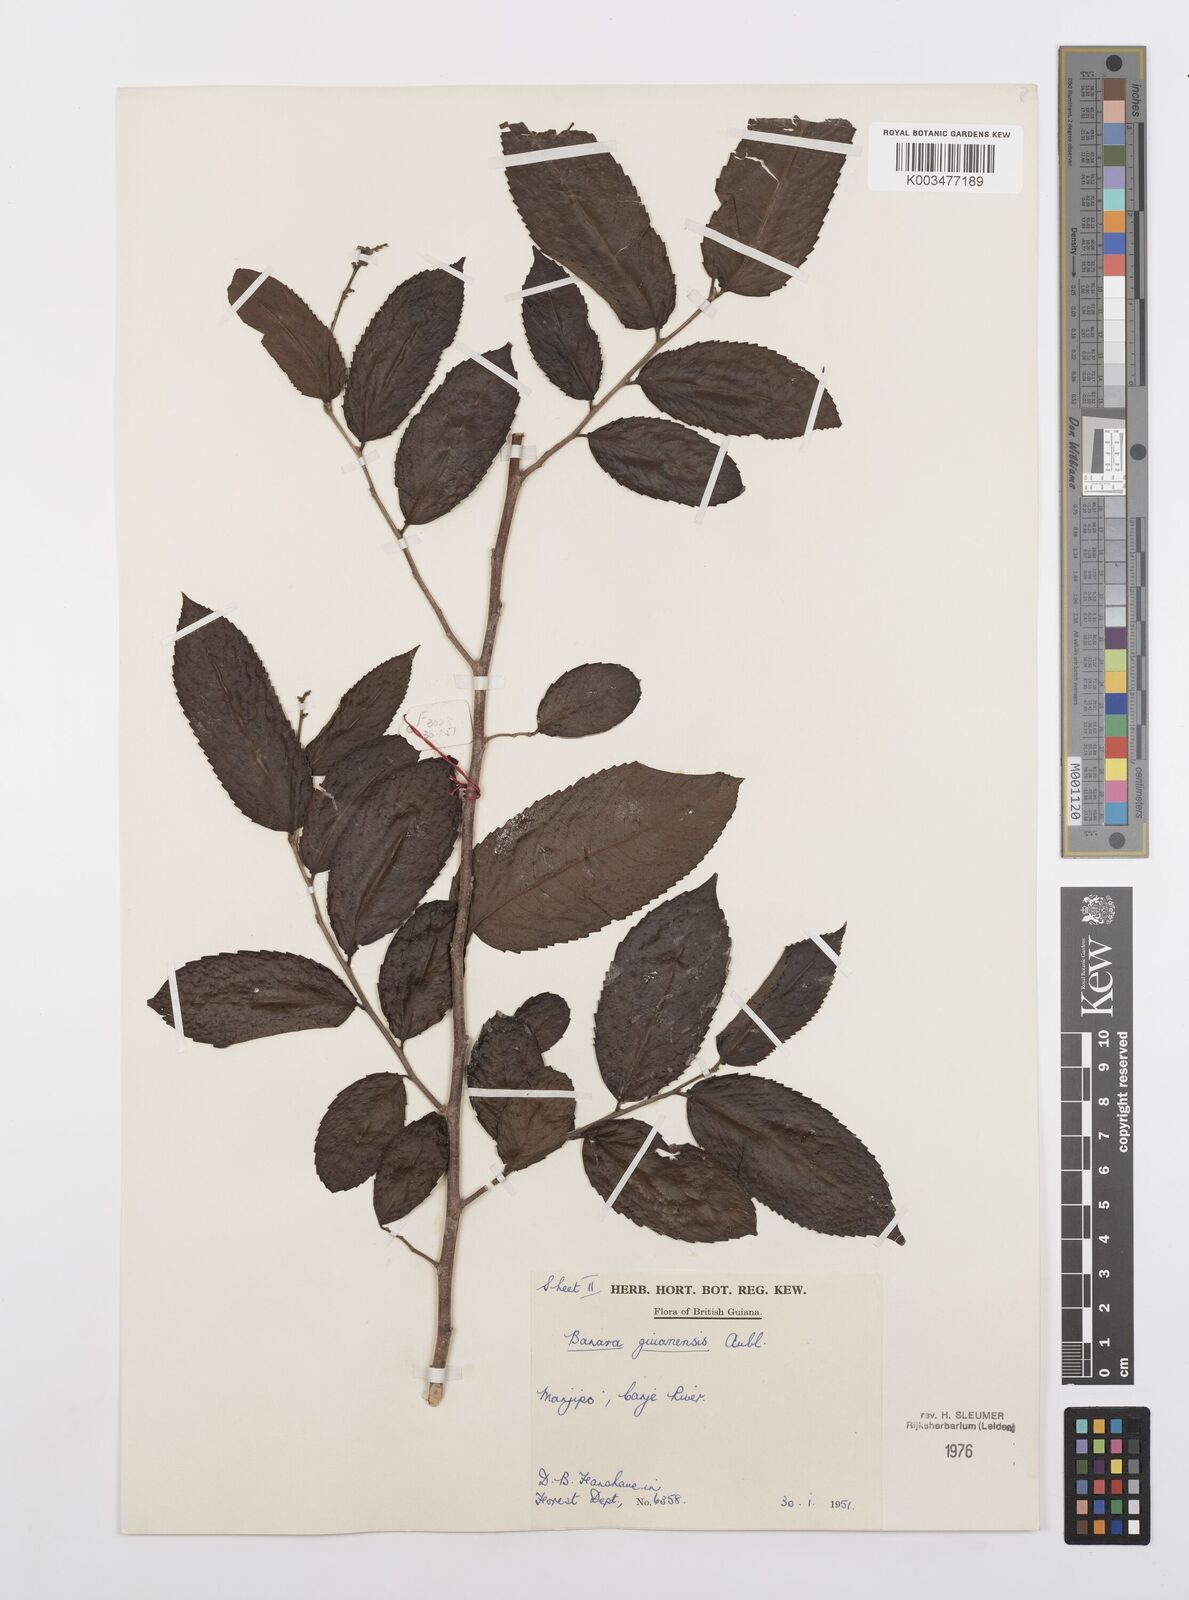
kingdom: Plantae
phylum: Tracheophyta
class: Magnoliopsida
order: Malpighiales
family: Salicaceae
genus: Banara
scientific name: Banara guianensis
